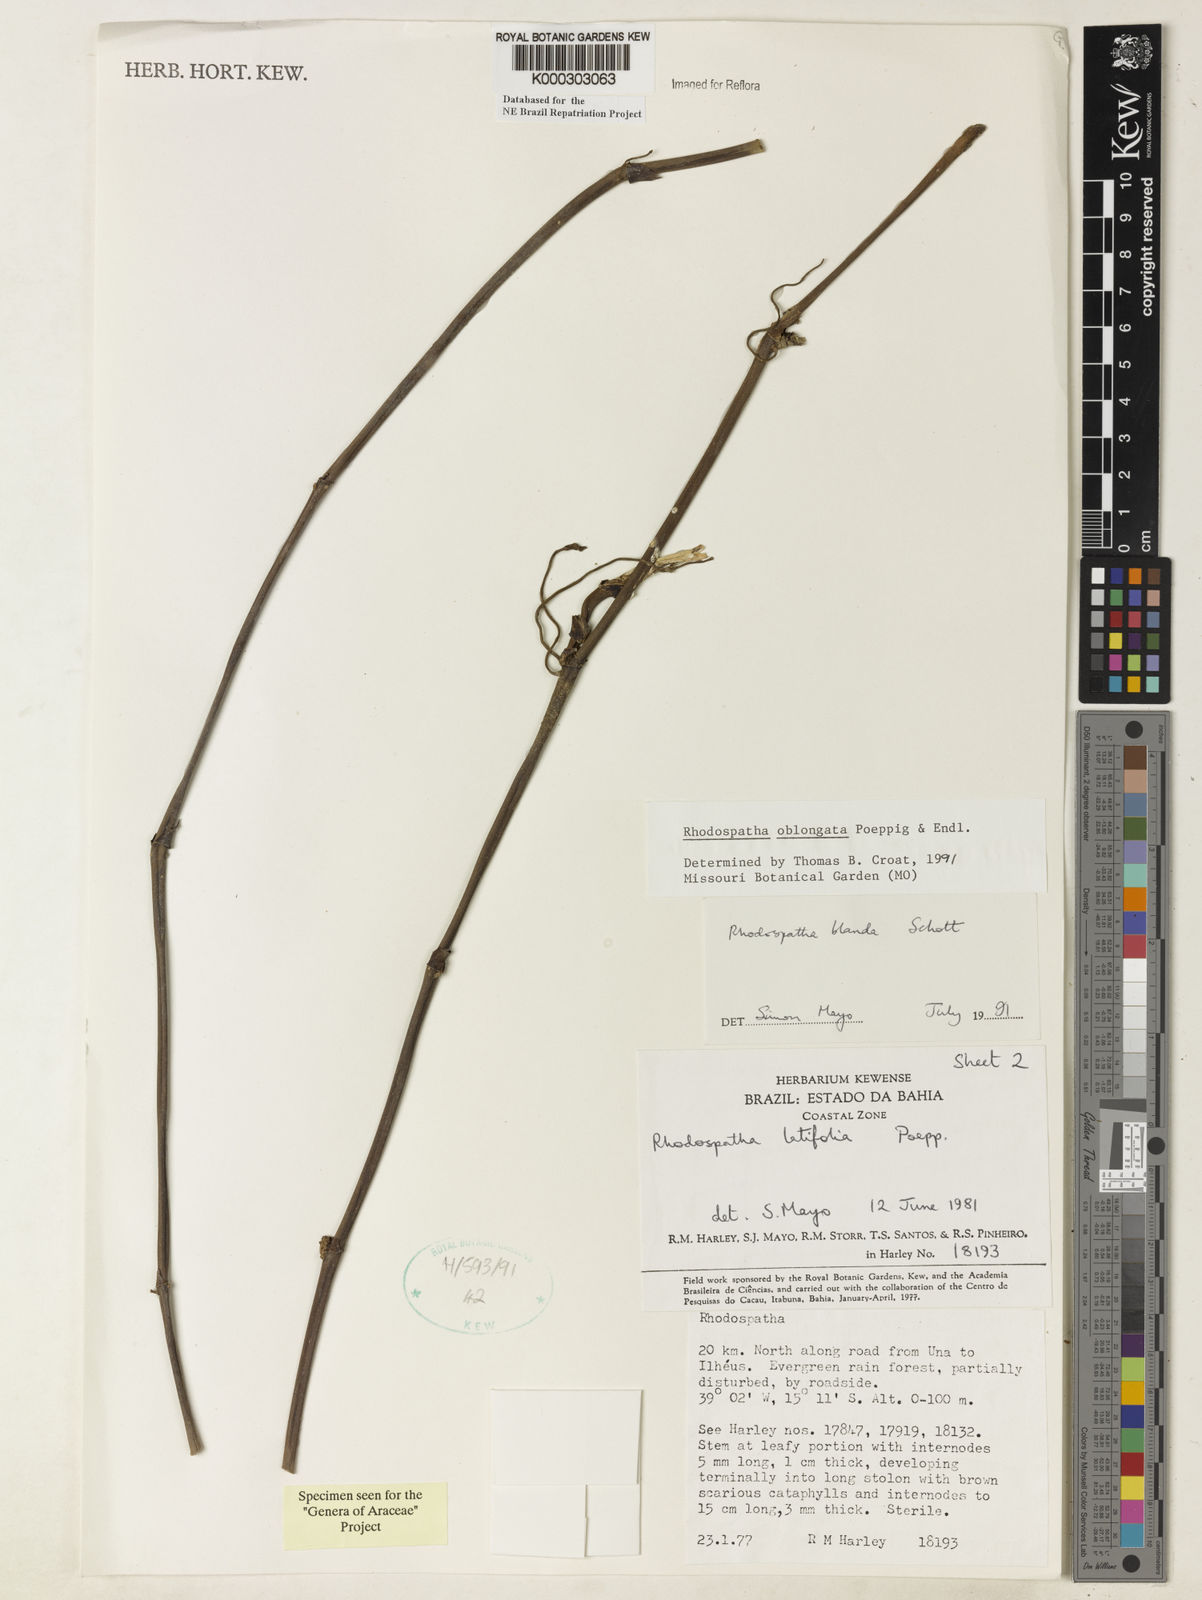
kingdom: Plantae
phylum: Tracheophyta
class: Liliopsida
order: Alismatales
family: Araceae
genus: Rhodospatha
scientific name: Rhodospatha oblongata
